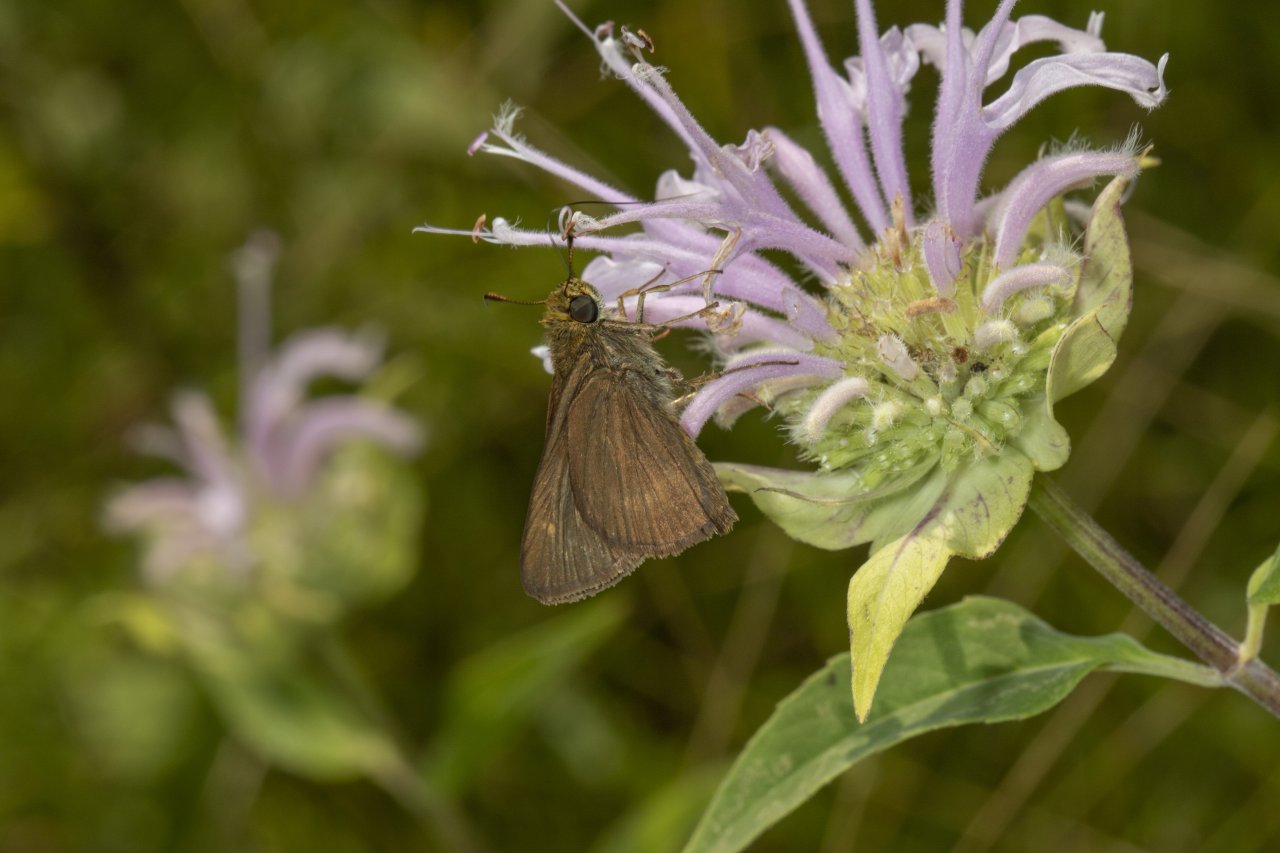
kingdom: Animalia
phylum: Arthropoda
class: Insecta
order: Lepidoptera
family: Hesperiidae
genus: Euphyes
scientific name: Euphyes vestris
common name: Dun Skipper
